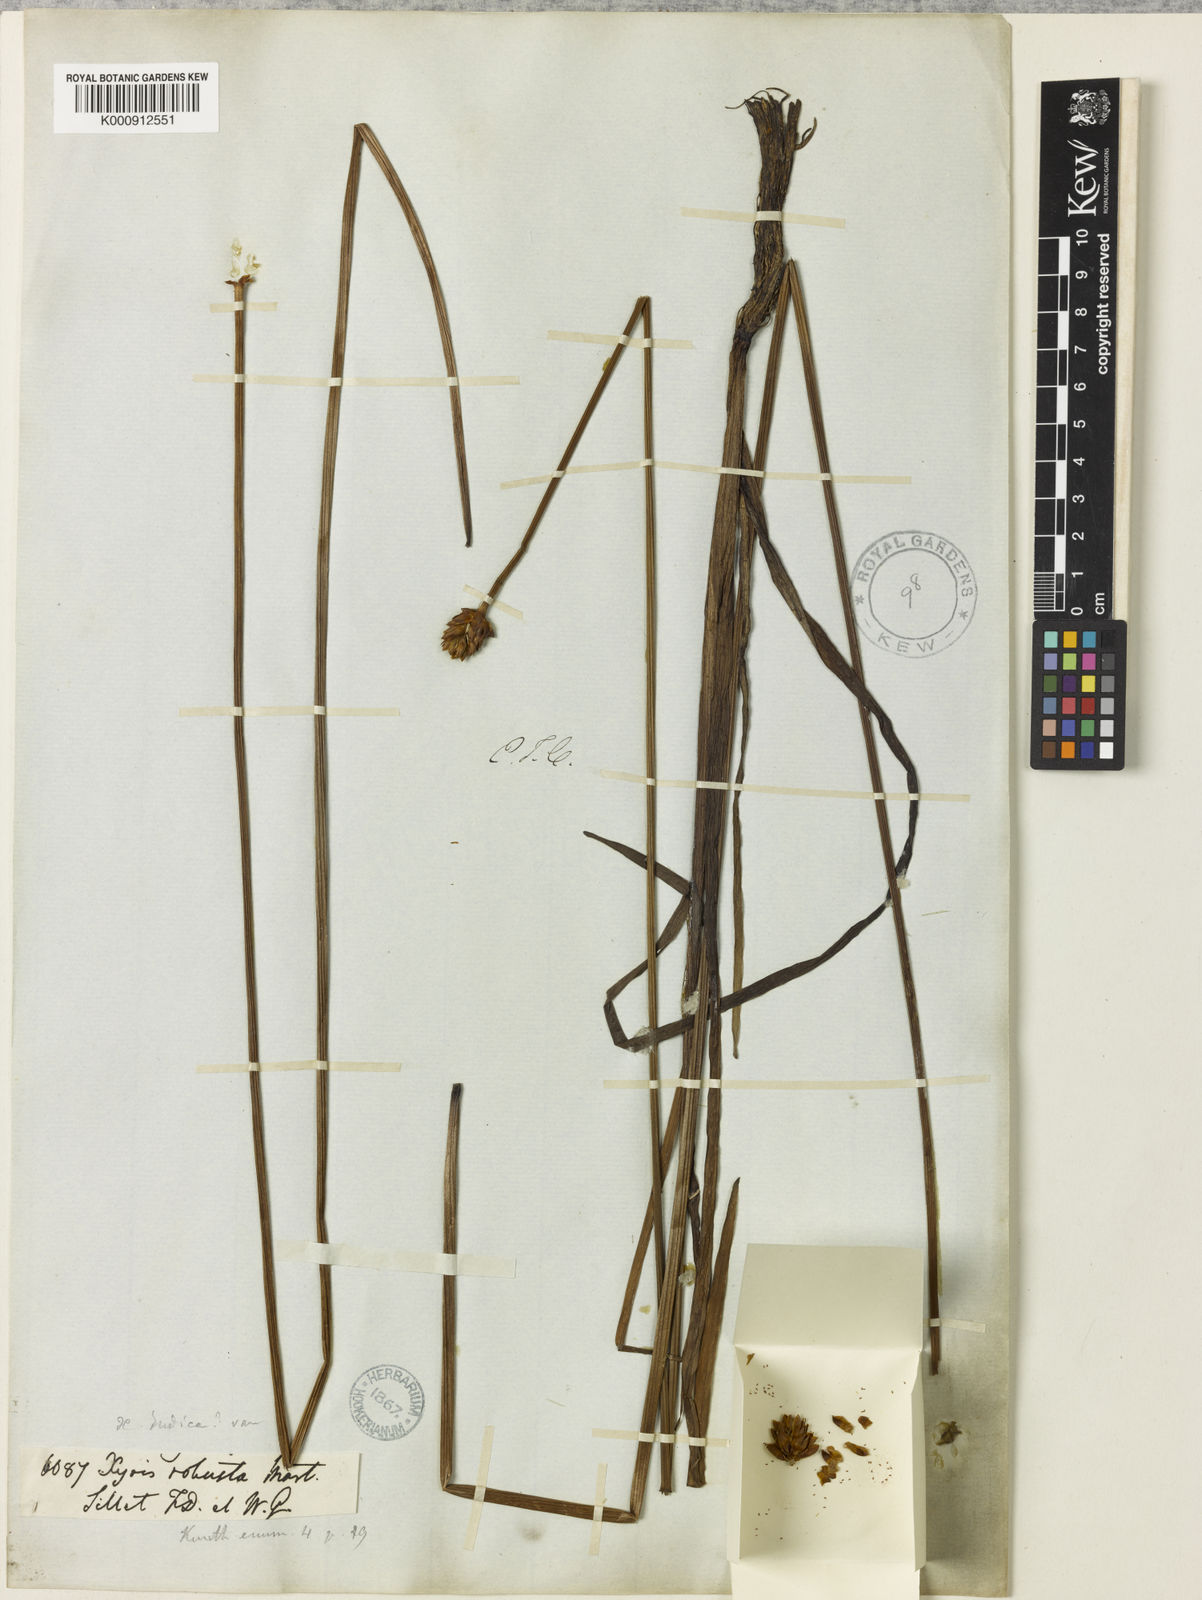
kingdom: Plantae
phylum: Tracheophyta
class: Liliopsida
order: Poales
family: Xyridaceae
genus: Xyris
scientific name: Xyris indica
